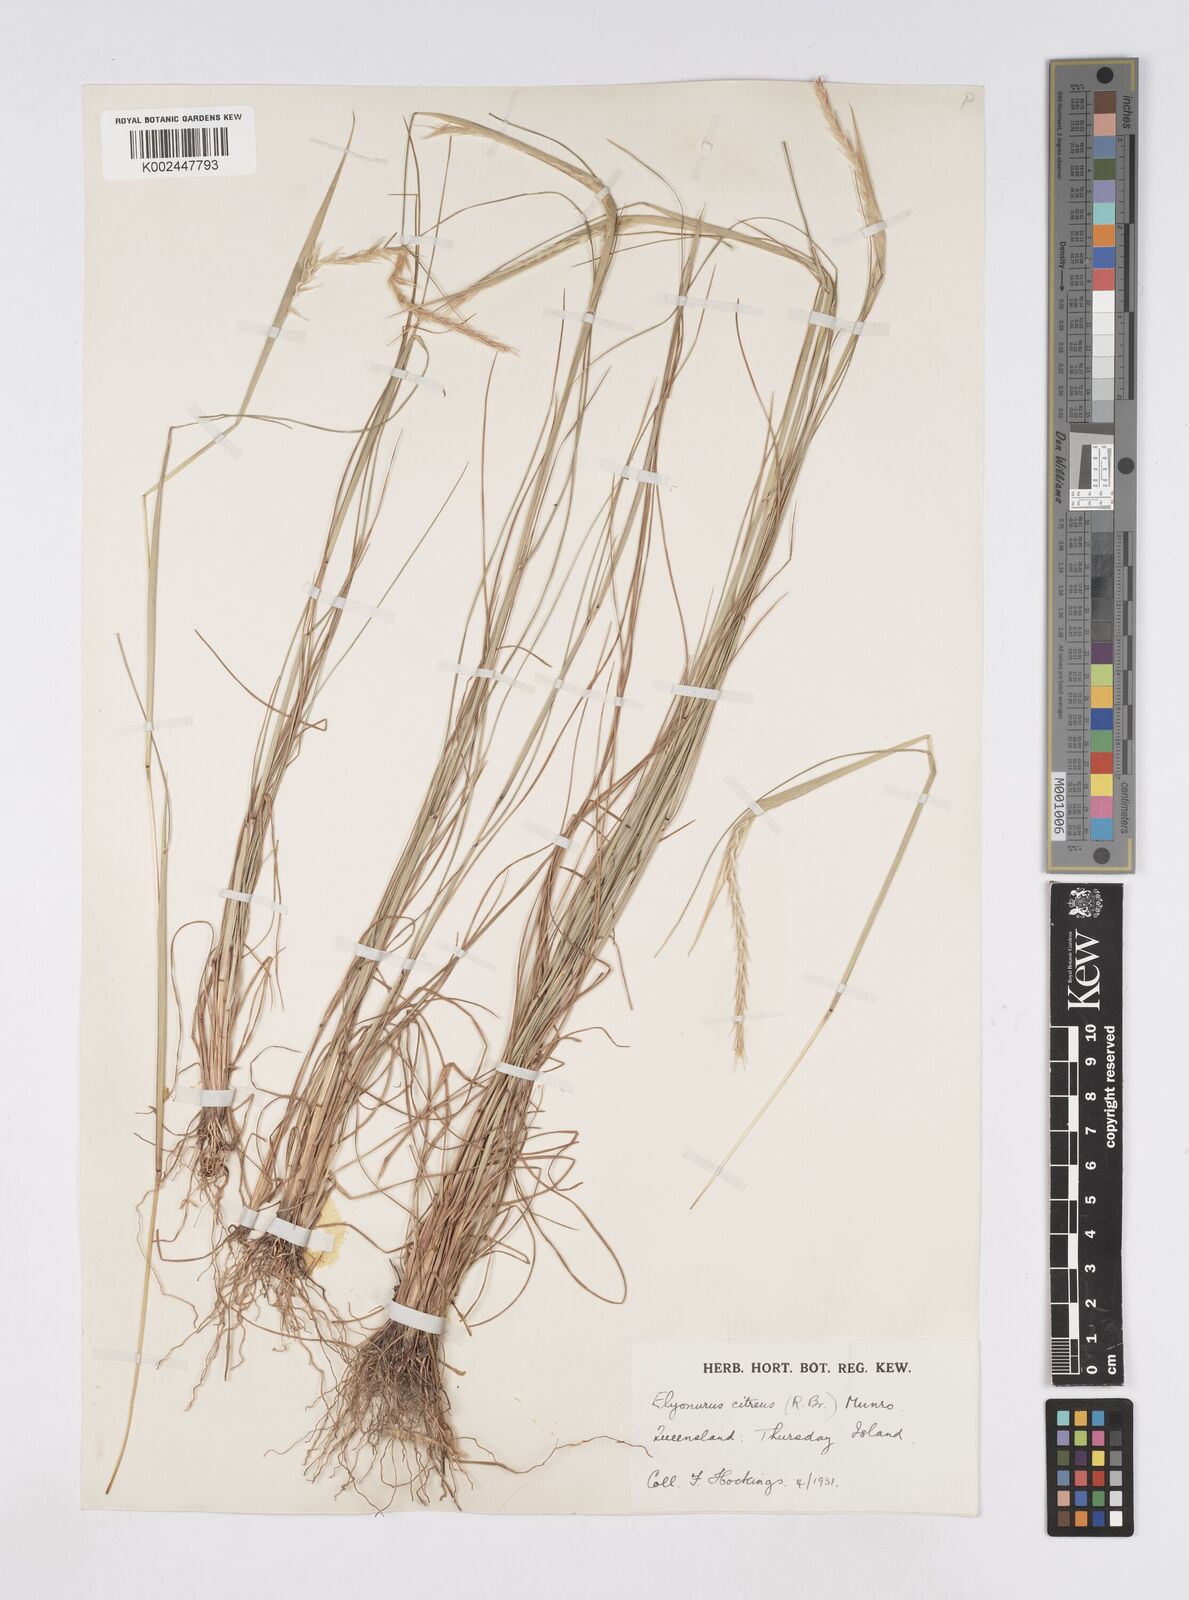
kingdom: Plantae
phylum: Tracheophyta
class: Liliopsida
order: Poales
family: Poaceae
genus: Elionurus
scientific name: Elionurus citreus
